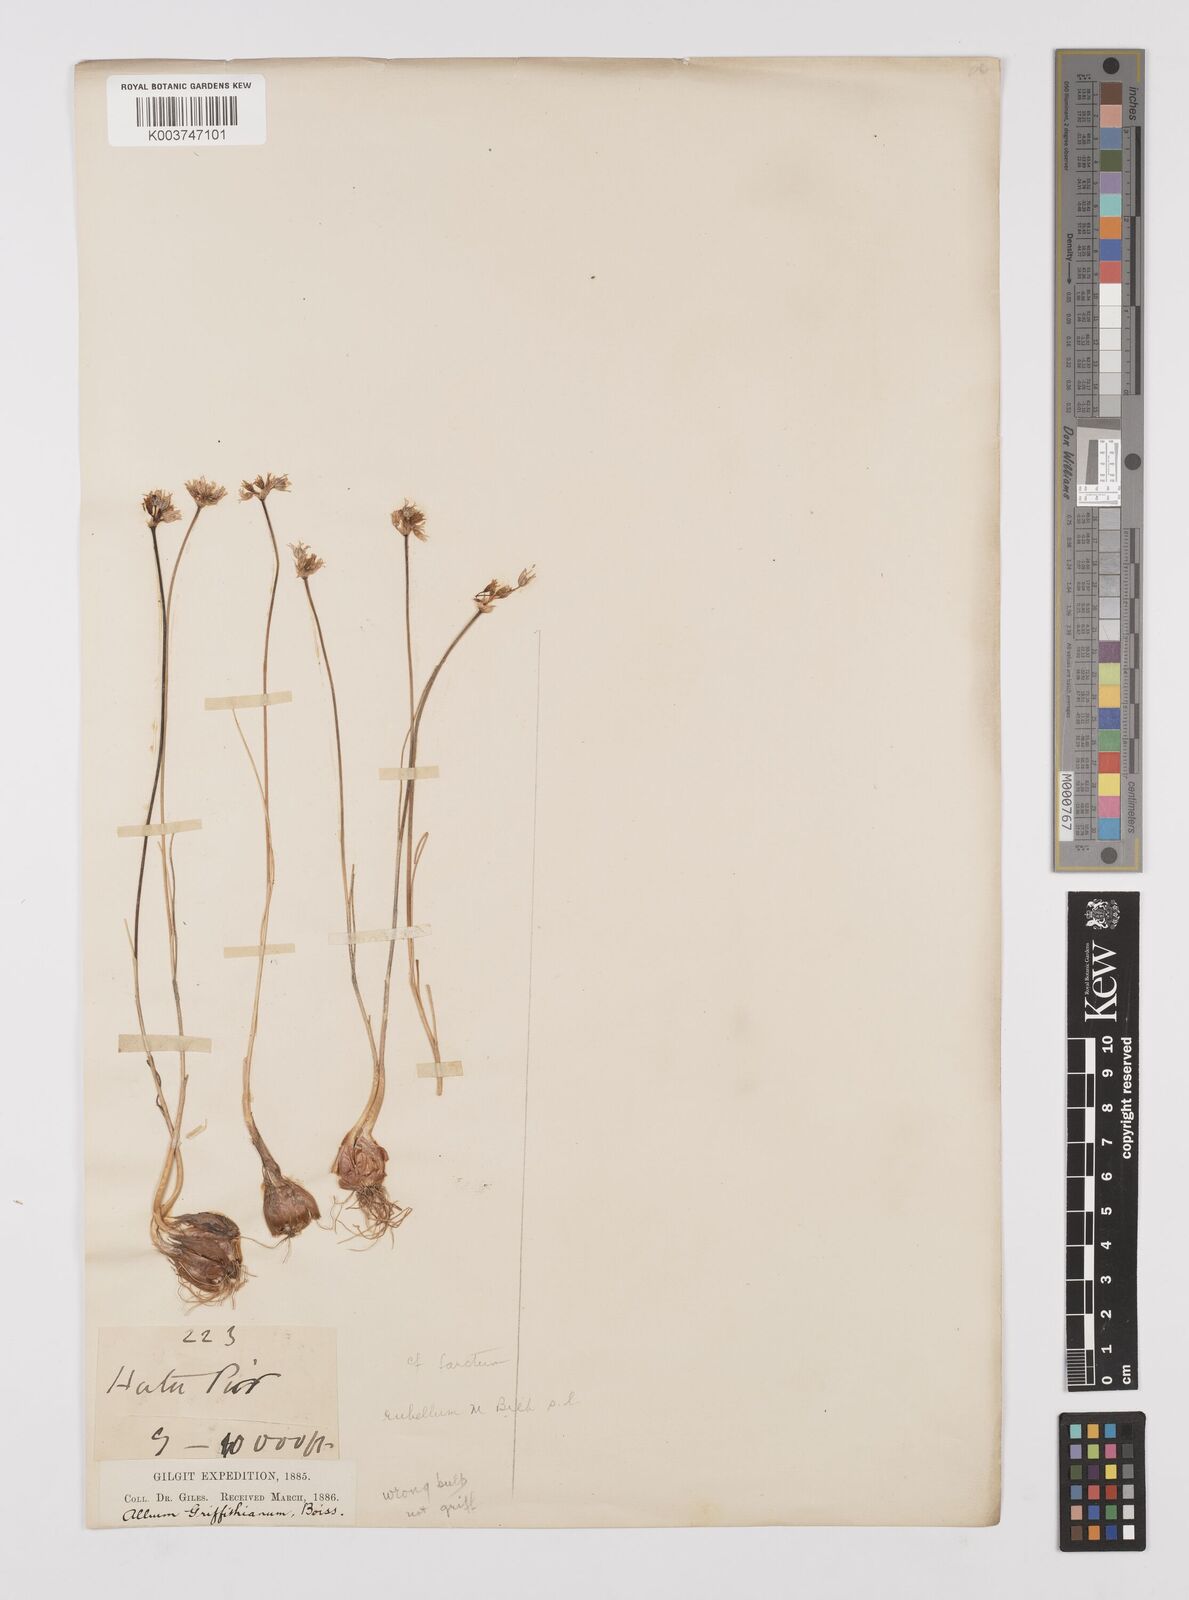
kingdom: Plantae
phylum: Tracheophyta
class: Liliopsida
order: Asparagales
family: Amaryllidaceae
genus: Allium
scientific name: Allium rubellum
